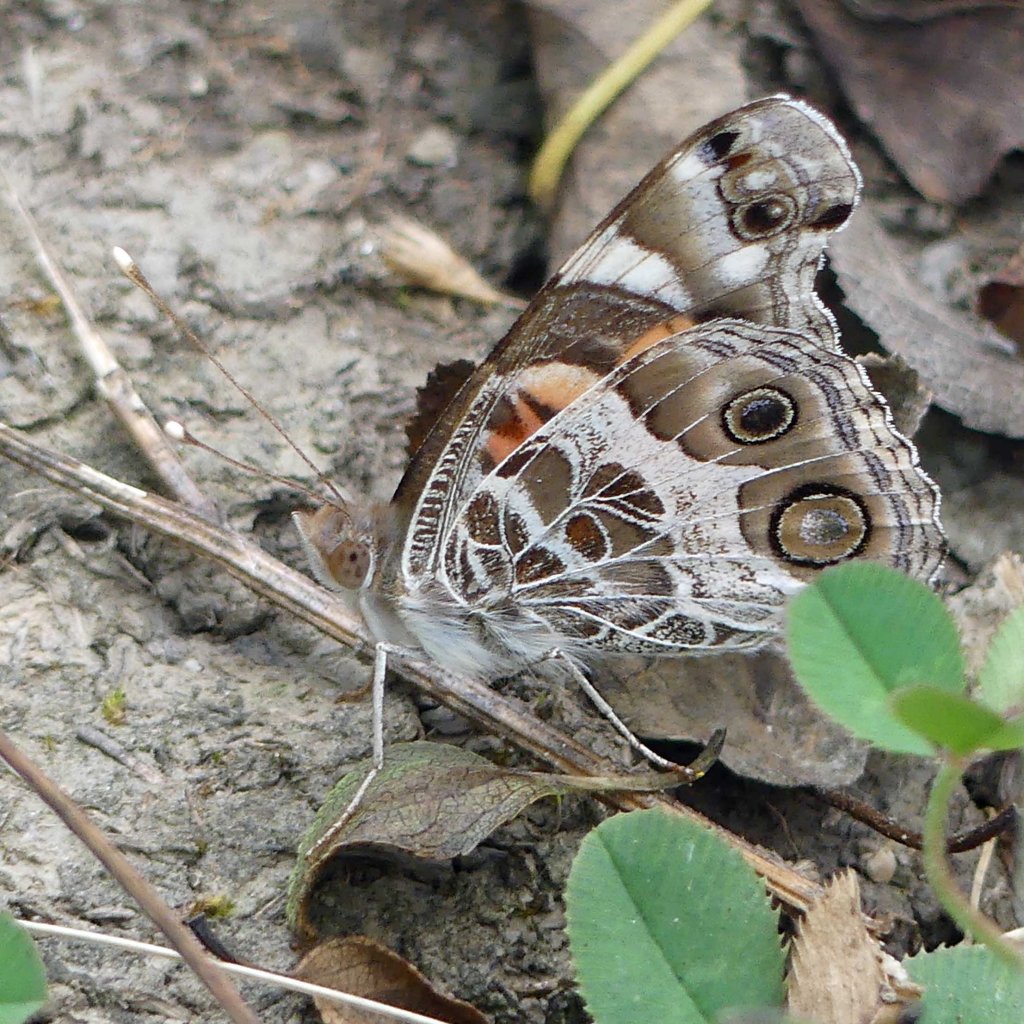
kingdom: Animalia
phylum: Arthropoda
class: Insecta
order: Lepidoptera
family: Nymphalidae
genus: Vanessa
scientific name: Vanessa virginiensis
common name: American Lady
